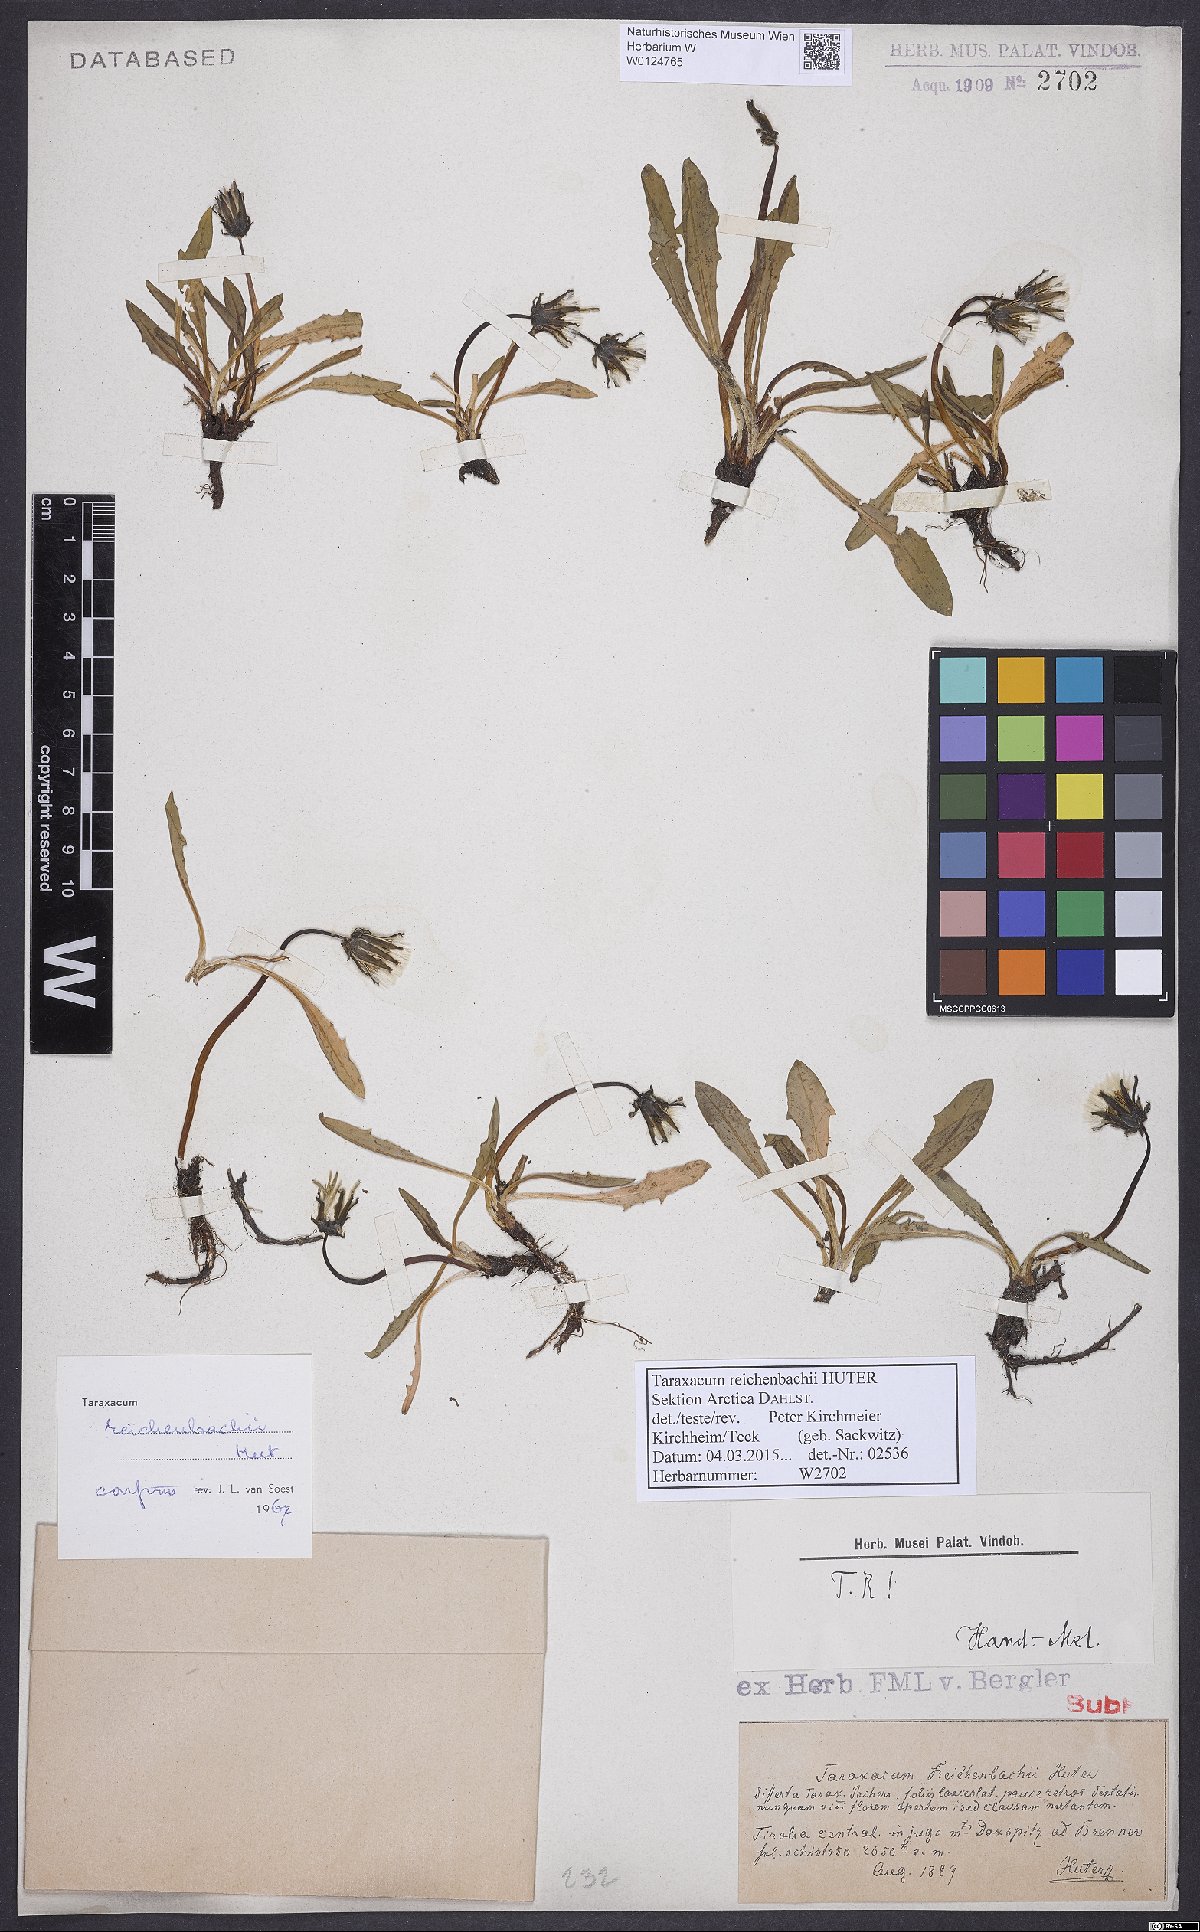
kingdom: Plantae
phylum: Tracheophyta
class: Magnoliopsida
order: Asterales
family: Asteraceae
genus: Taraxacum
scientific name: Taraxacum reichenbachii
